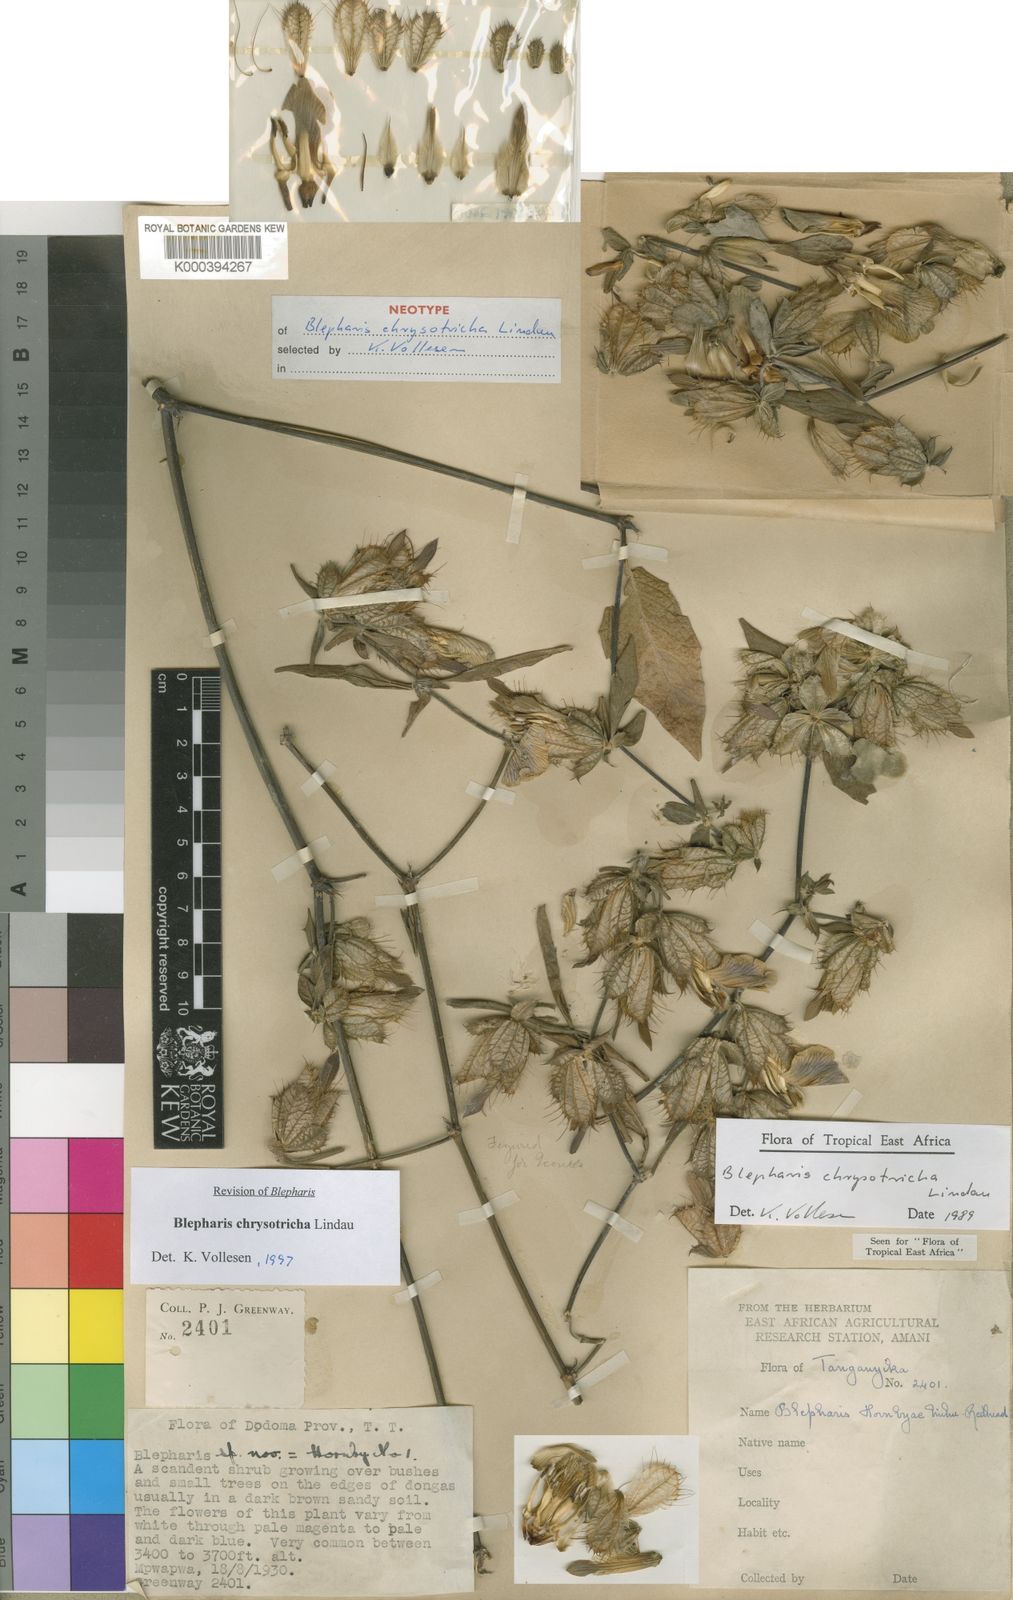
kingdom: Plantae
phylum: Tracheophyta
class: Magnoliopsida
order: Lamiales
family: Acanthaceae
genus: Blepharis
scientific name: Blepharis chrysotricha
